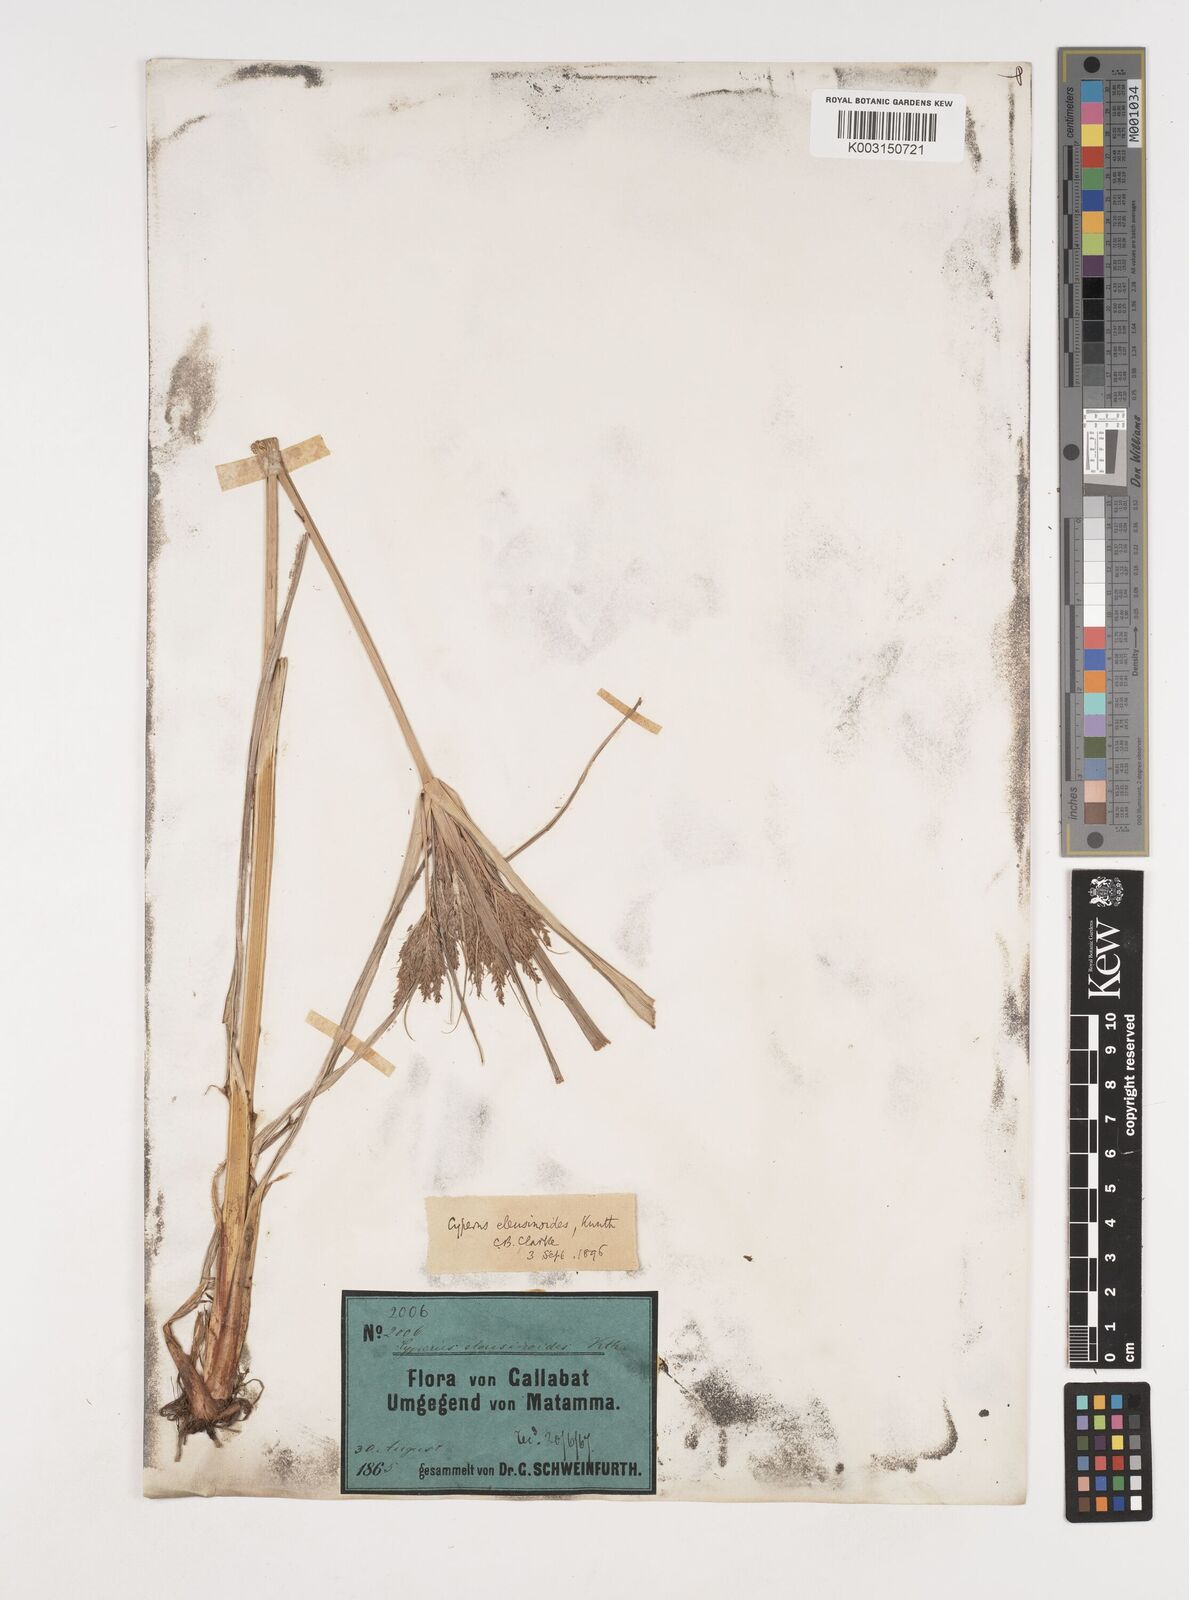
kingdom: Plantae
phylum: Tracheophyta
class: Liliopsida
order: Poales
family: Cyperaceae
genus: Cyperus
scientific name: Cyperus nutans
